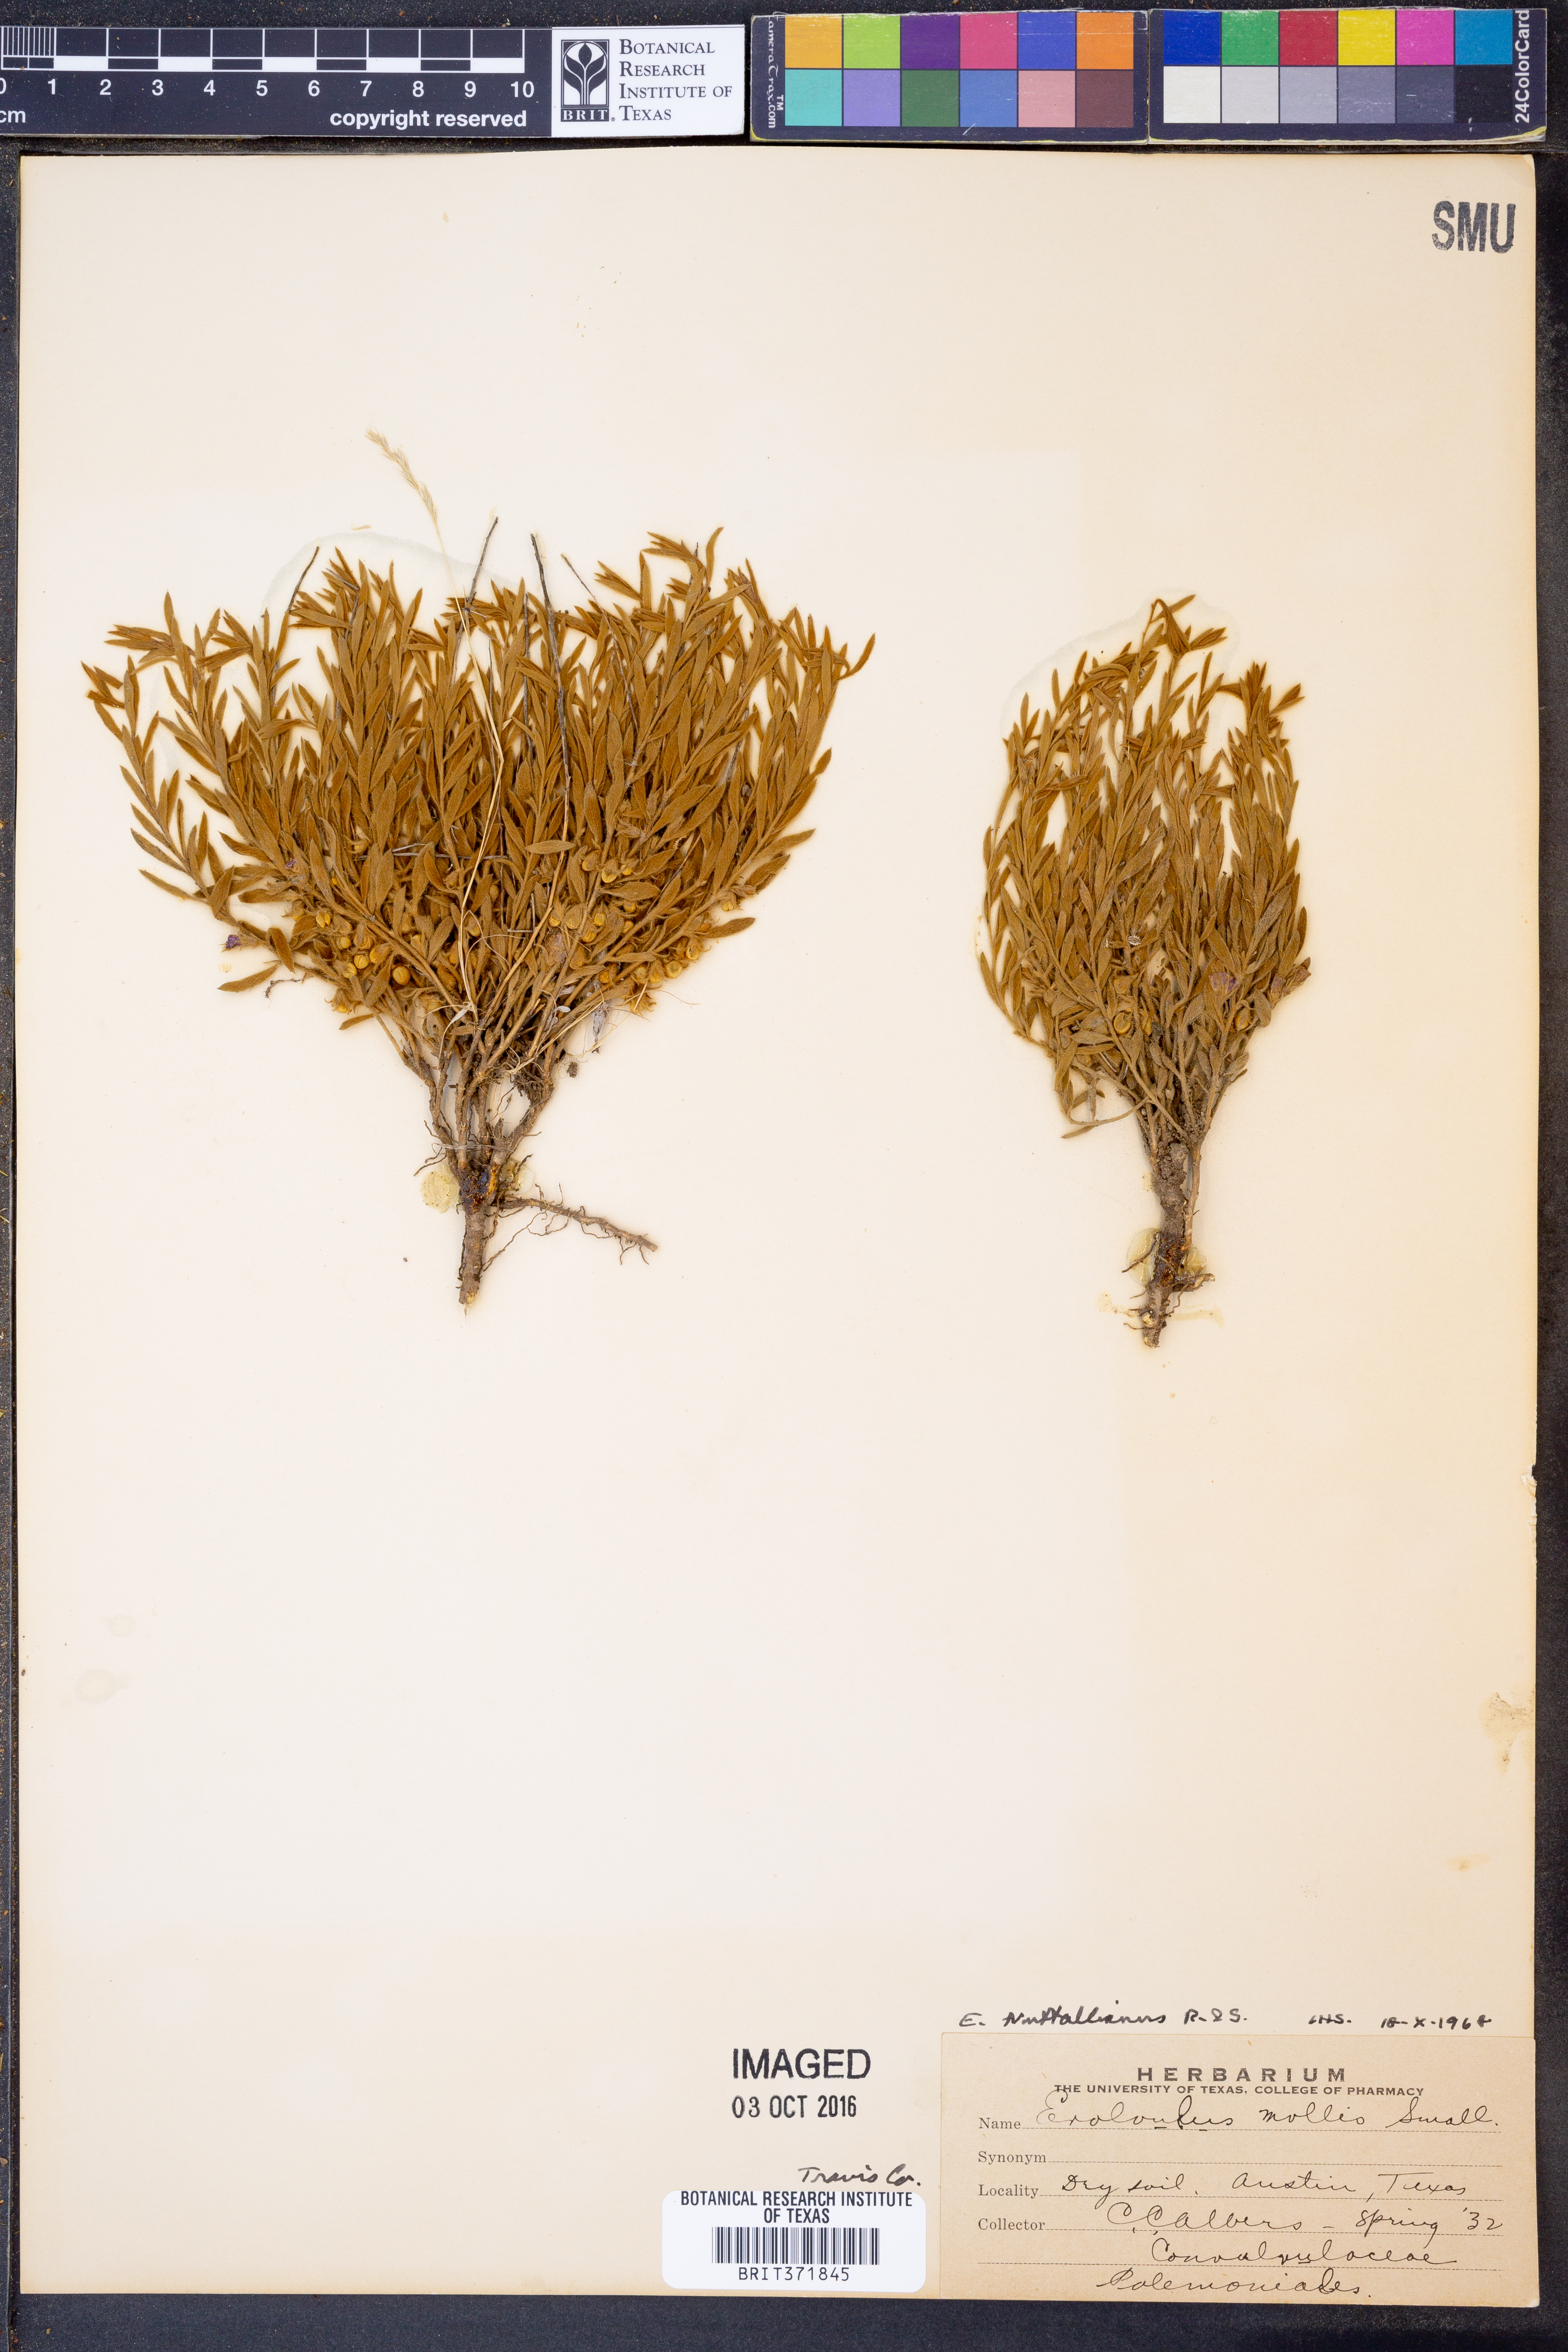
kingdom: Plantae
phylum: Tracheophyta
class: Magnoliopsida
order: Solanales
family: Convolvulaceae
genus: Evolvulus
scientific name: Evolvulus nuttallianus
